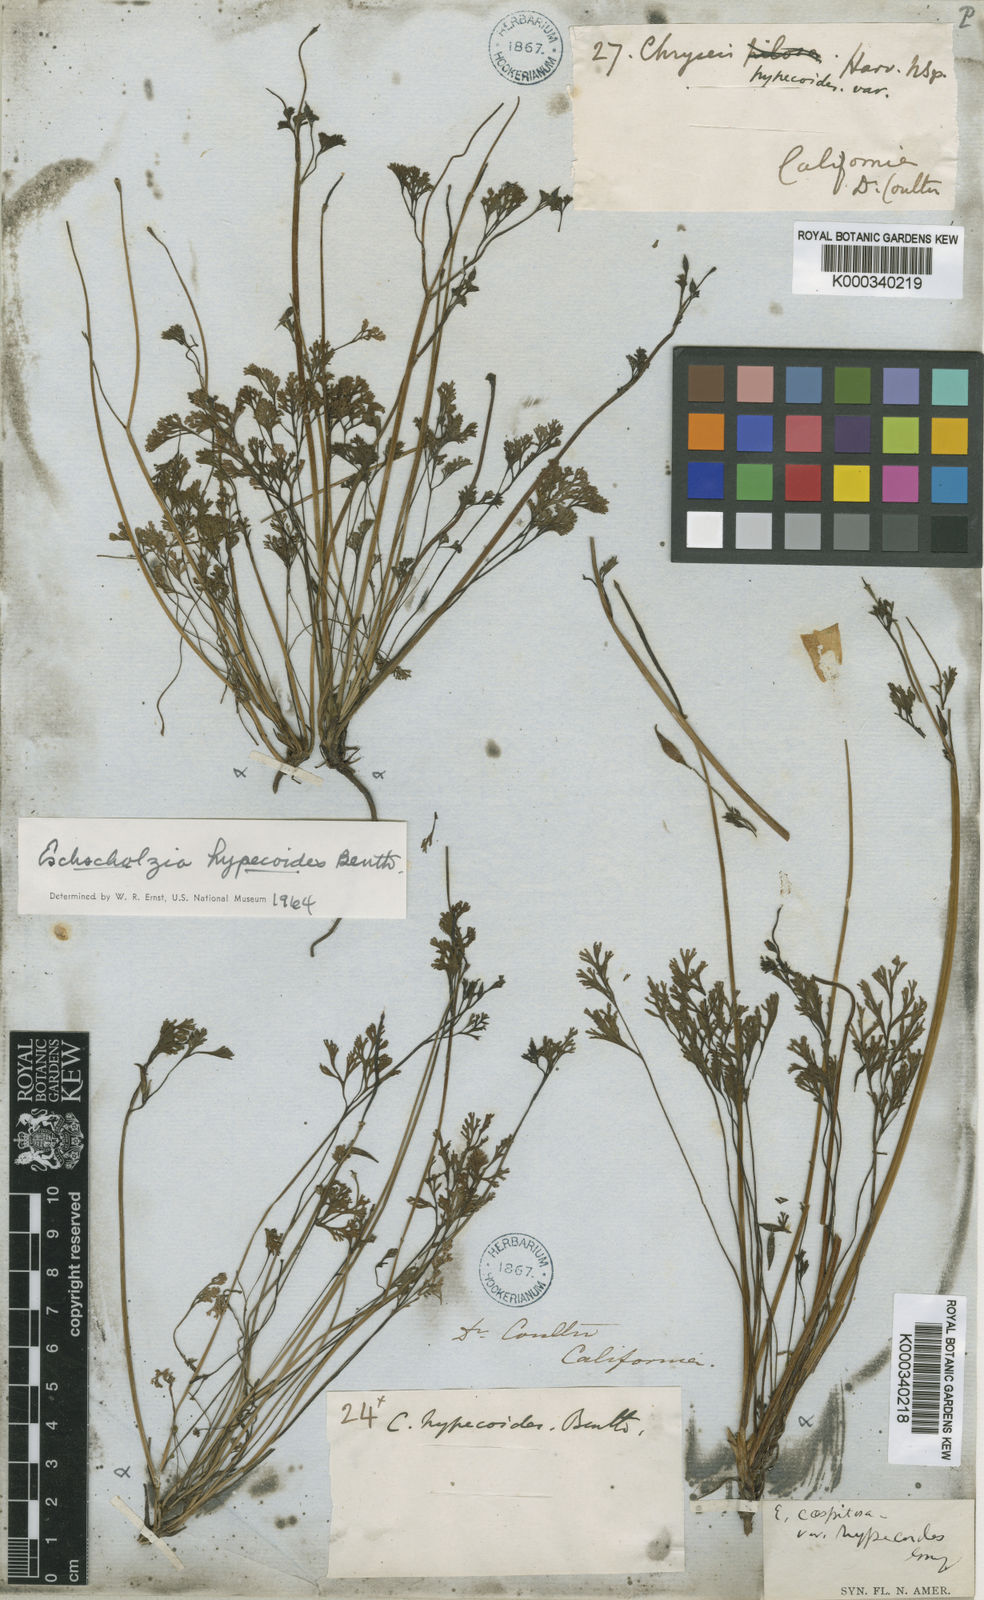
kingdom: Plantae
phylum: Tracheophyta
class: Magnoliopsida
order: Ranunculales
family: Papaveraceae
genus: Eschscholzia
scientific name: Eschscholzia hypecoides
